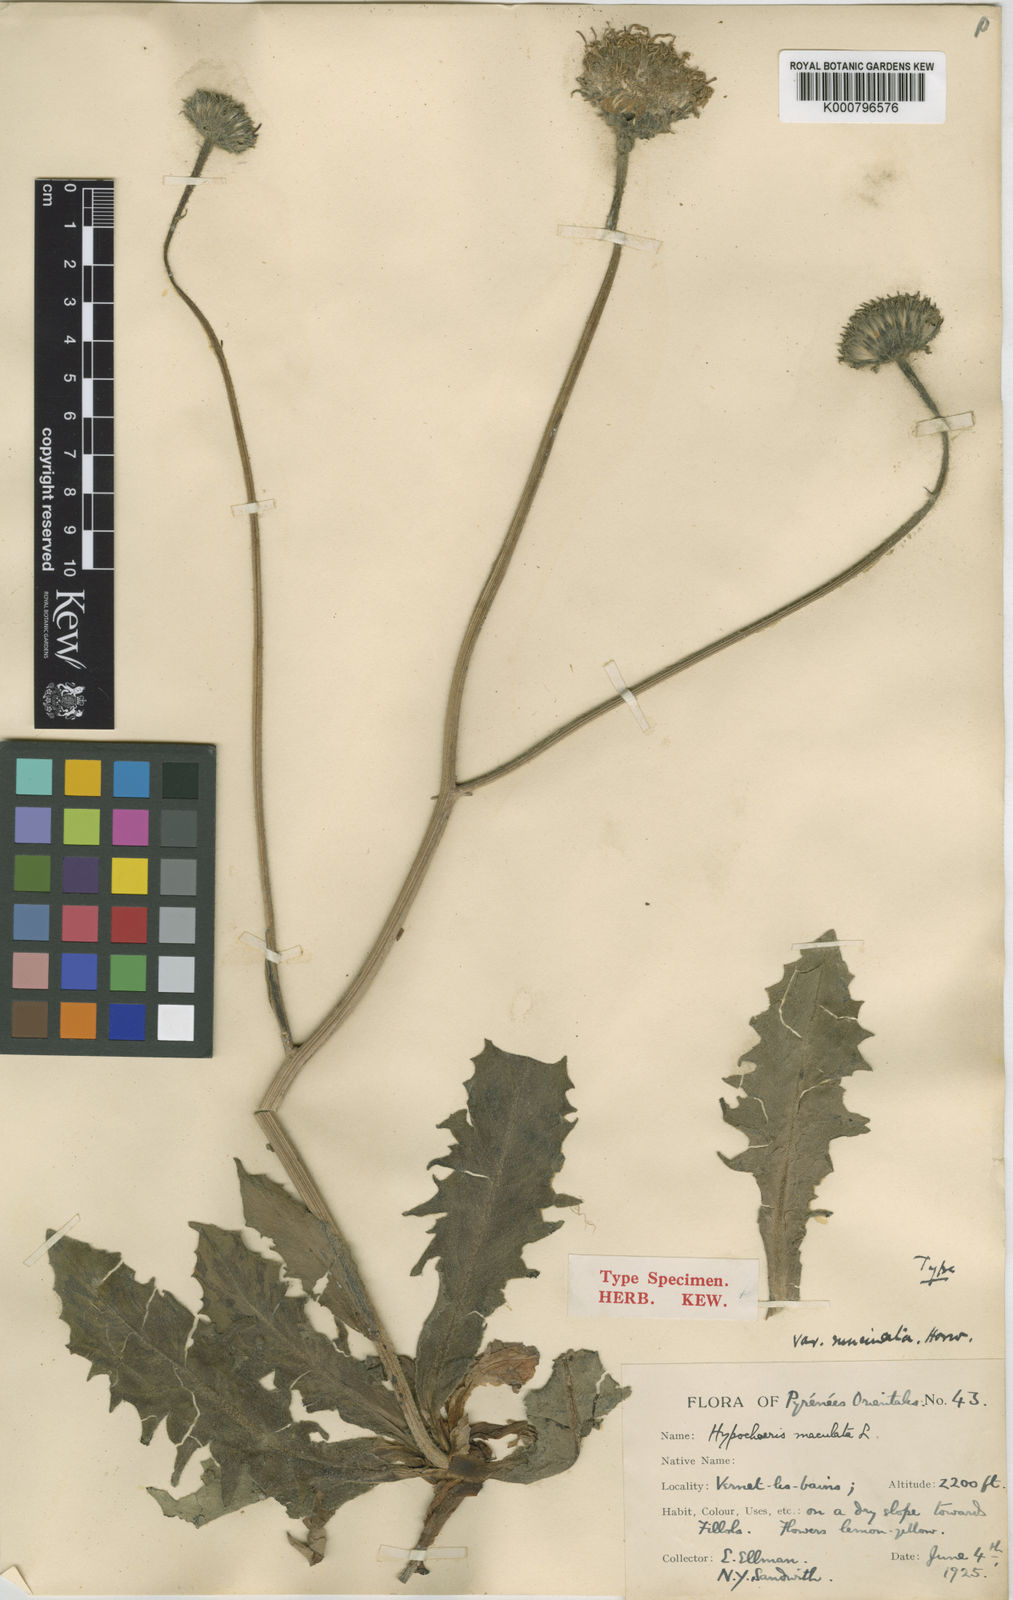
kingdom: Plantae
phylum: Tracheophyta
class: Magnoliopsida
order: Asterales
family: Asteraceae
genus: Trommsdorffia
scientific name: Trommsdorffia maculata
